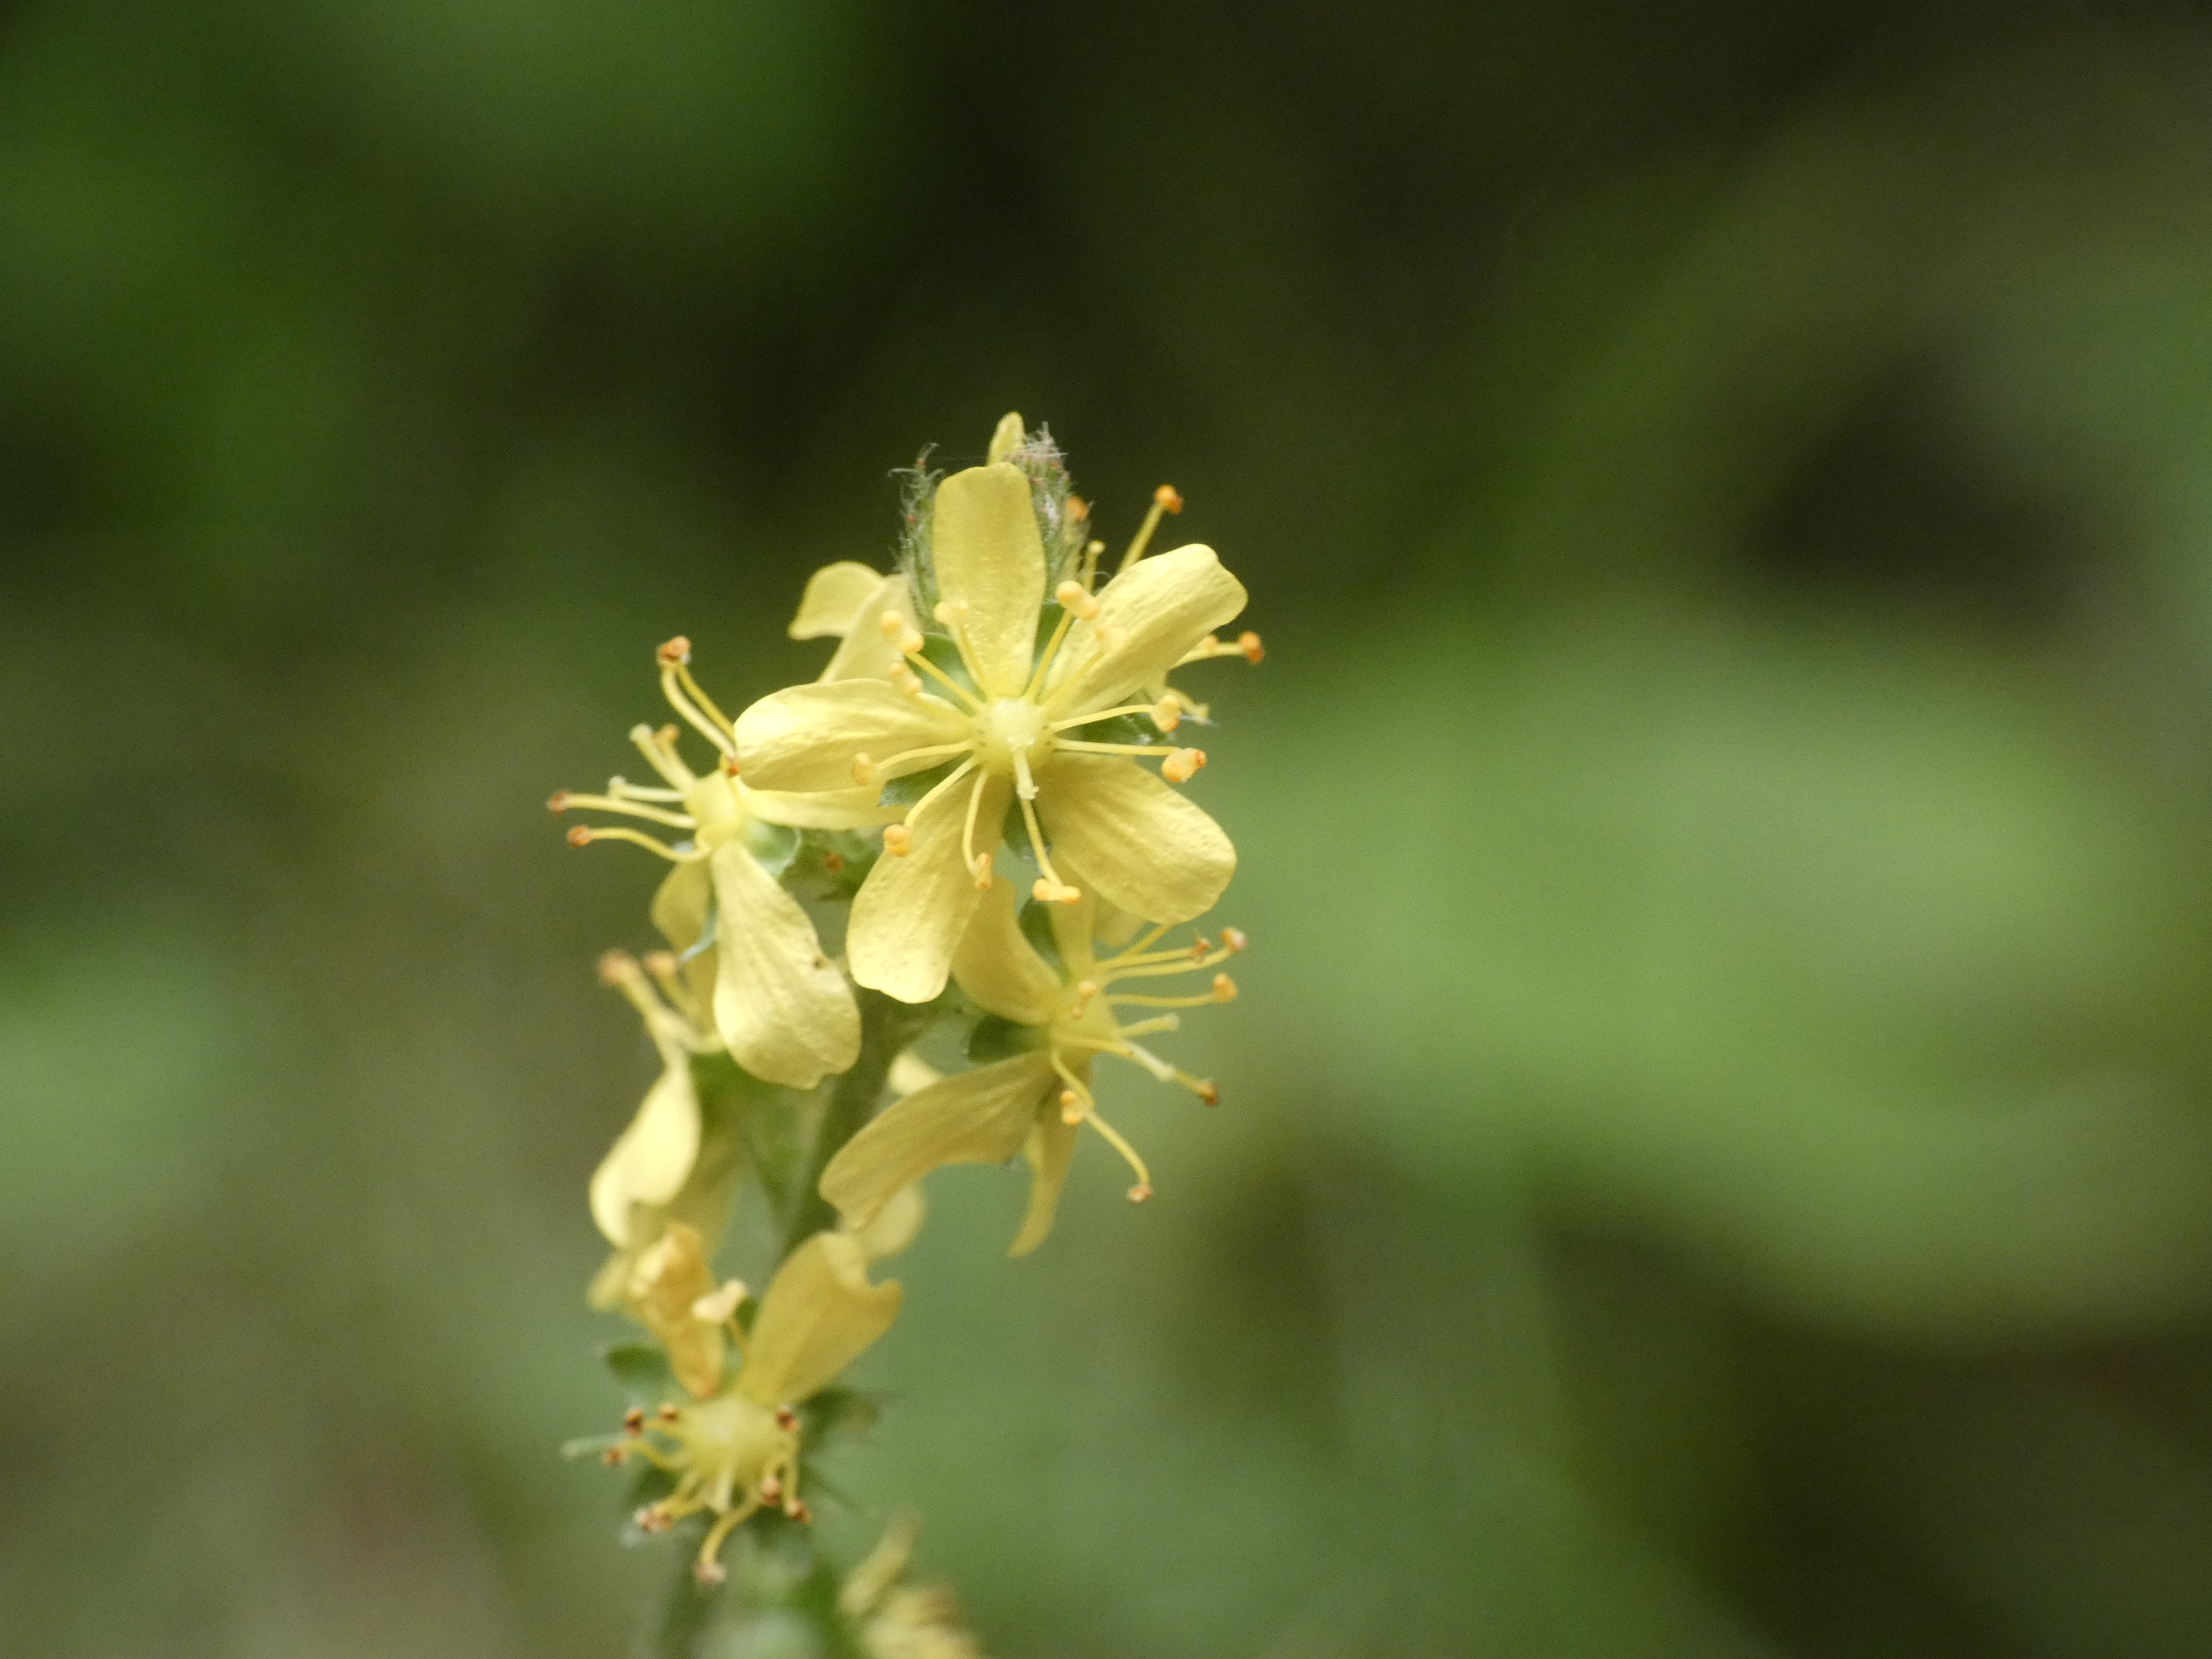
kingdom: Plantae
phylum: Tracheophyta
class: Magnoliopsida
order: Rosales
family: Rosaceae
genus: Agrimonia
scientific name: Agrimonia eupatoria
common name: Almindelig agermåne
